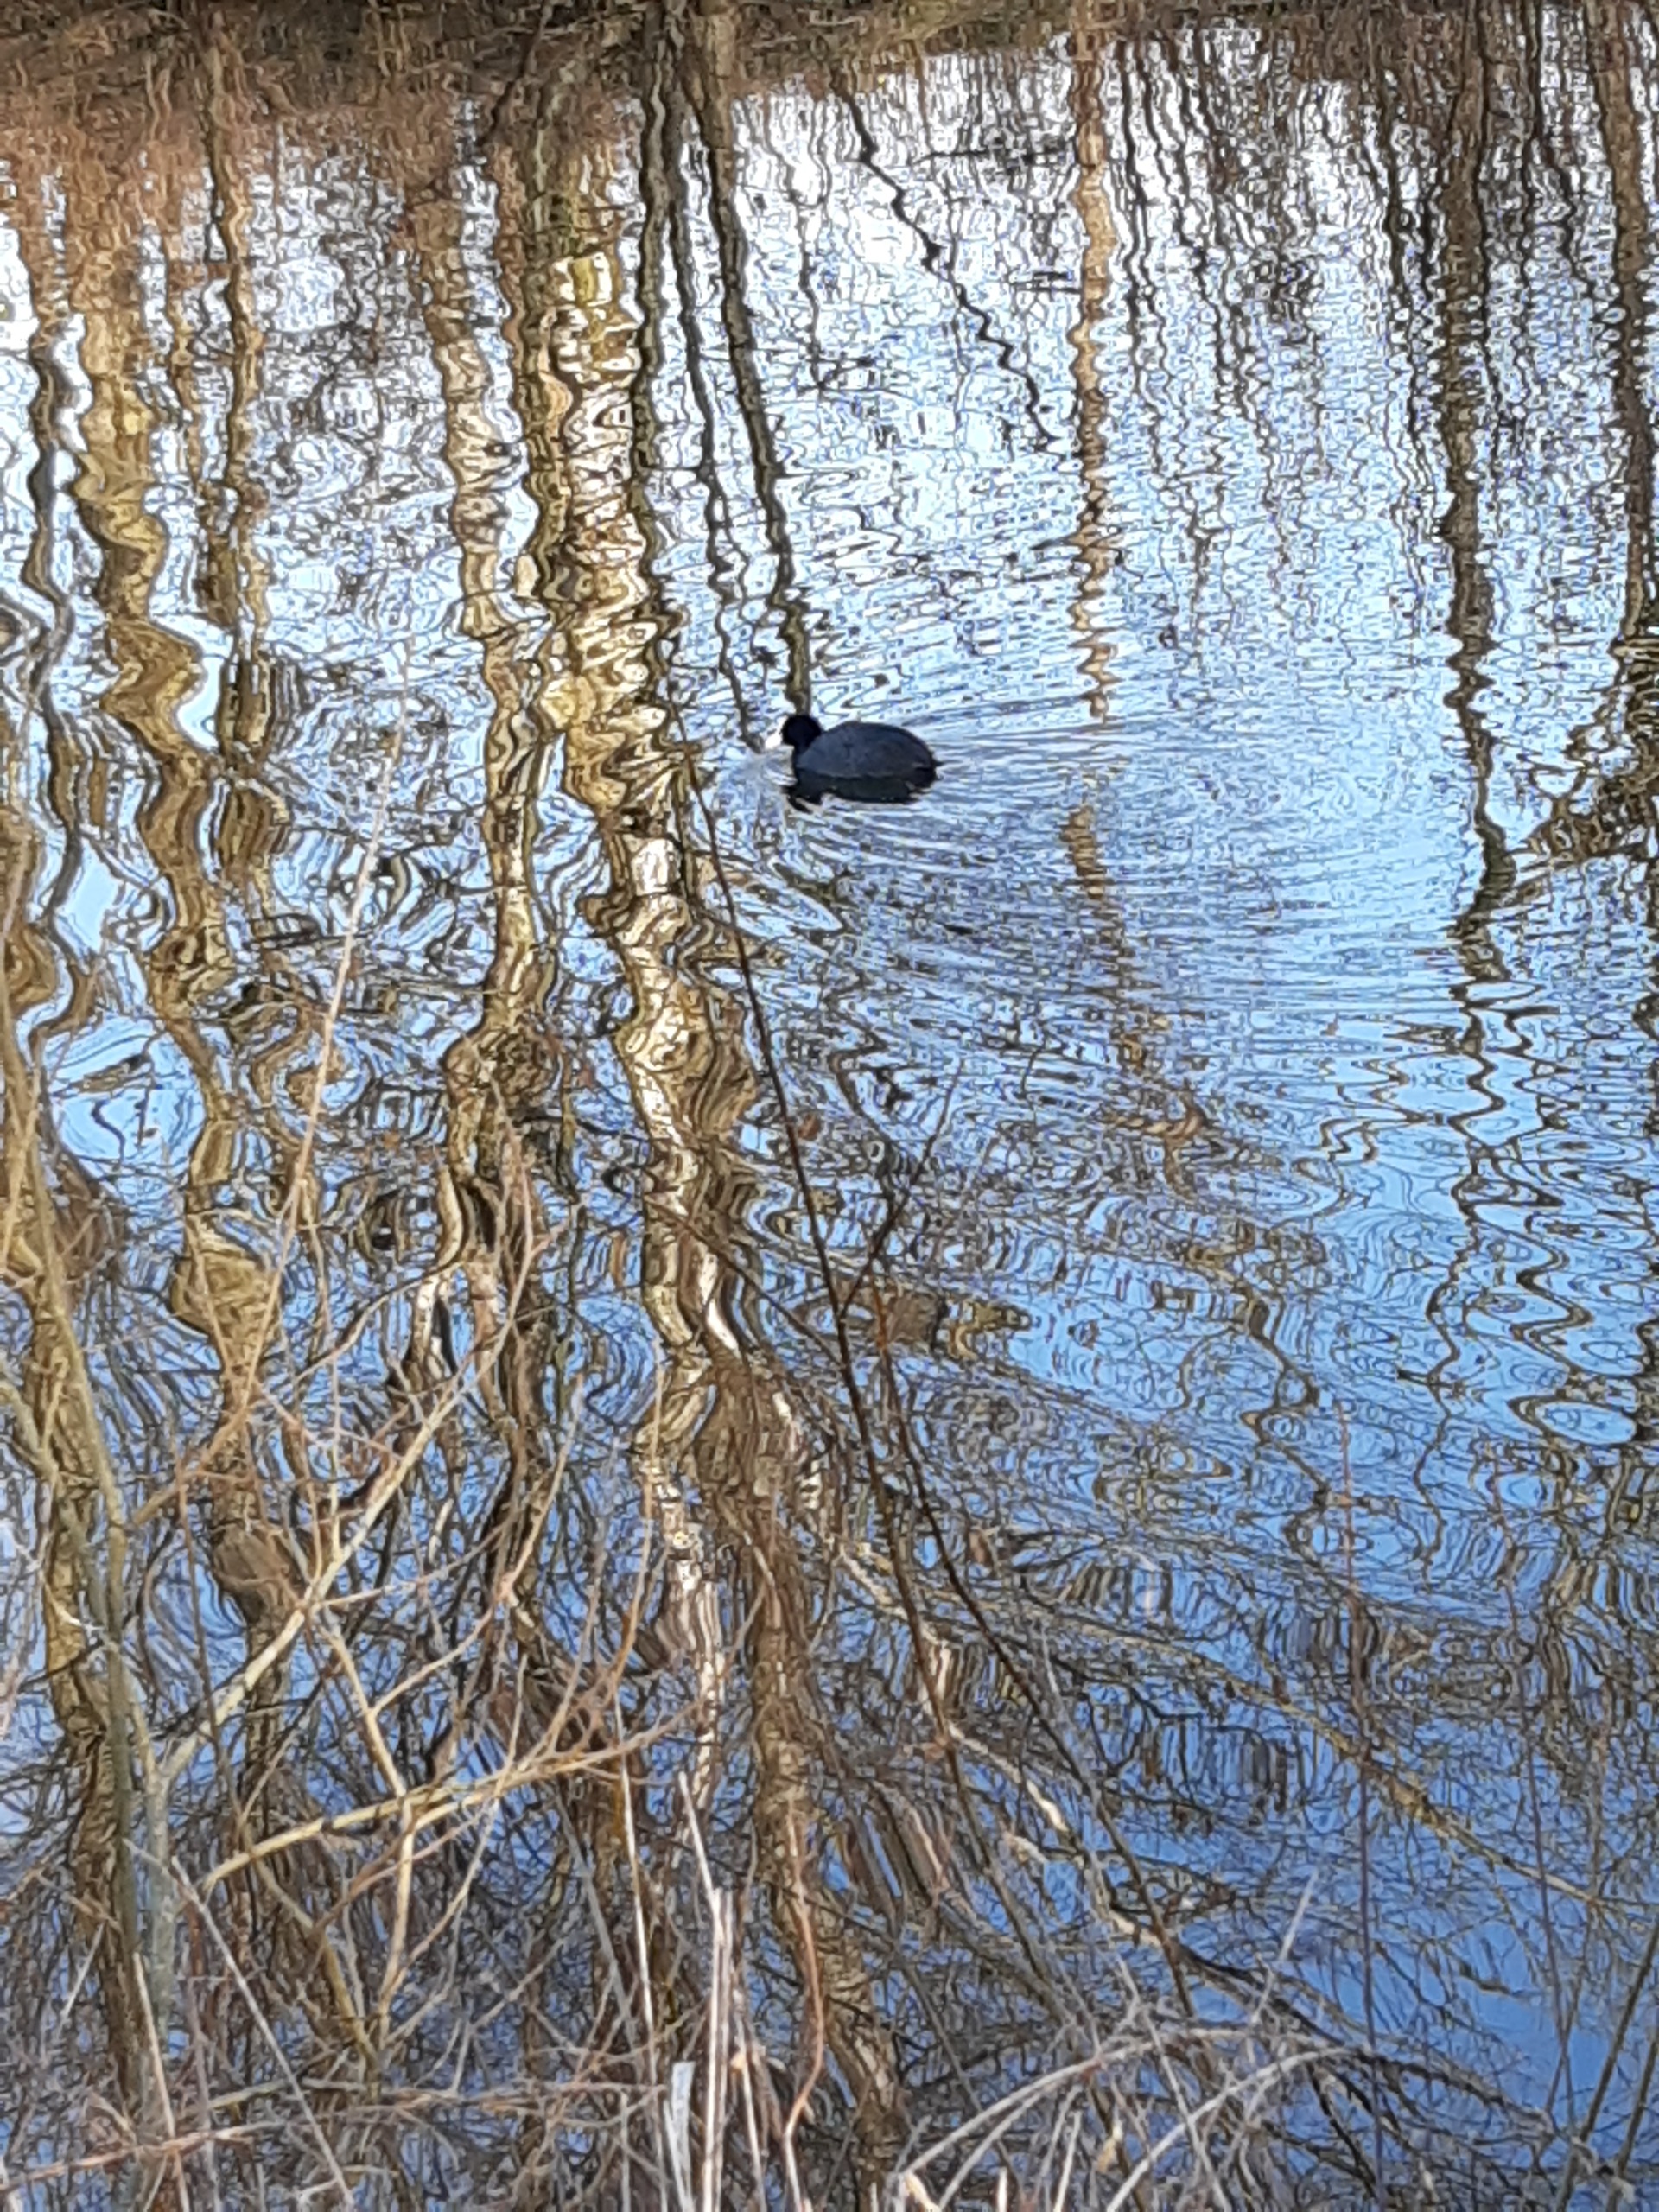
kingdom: Animalia
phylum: Chordata
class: Aves
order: Gruiformes
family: Rallidae
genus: Fulica
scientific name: Fulica atra
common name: Blishøne
